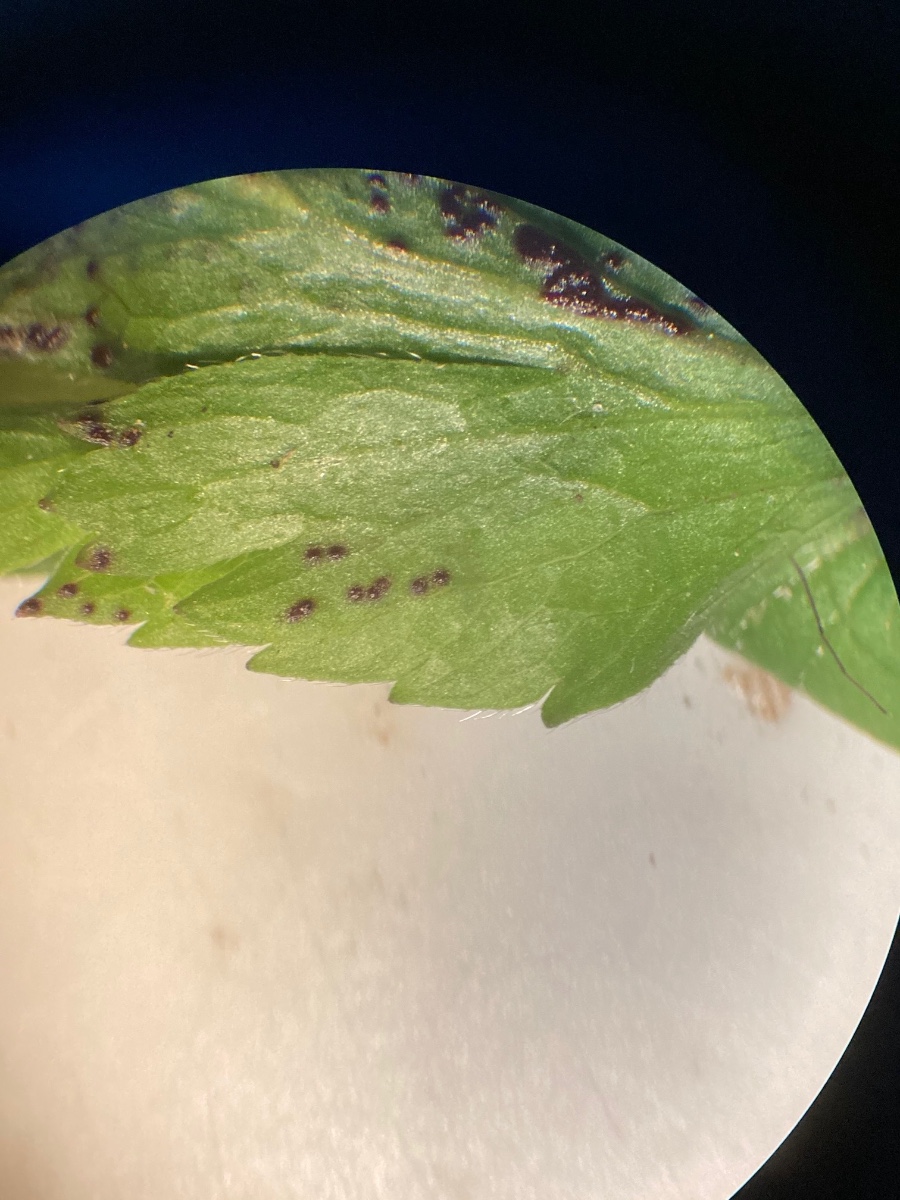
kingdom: Fungi
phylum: Chytridiomycota
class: Chytridiomycetes
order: Chytridiales
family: Synchytriaceae
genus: Synchytrium
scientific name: Synchytrium anemones
